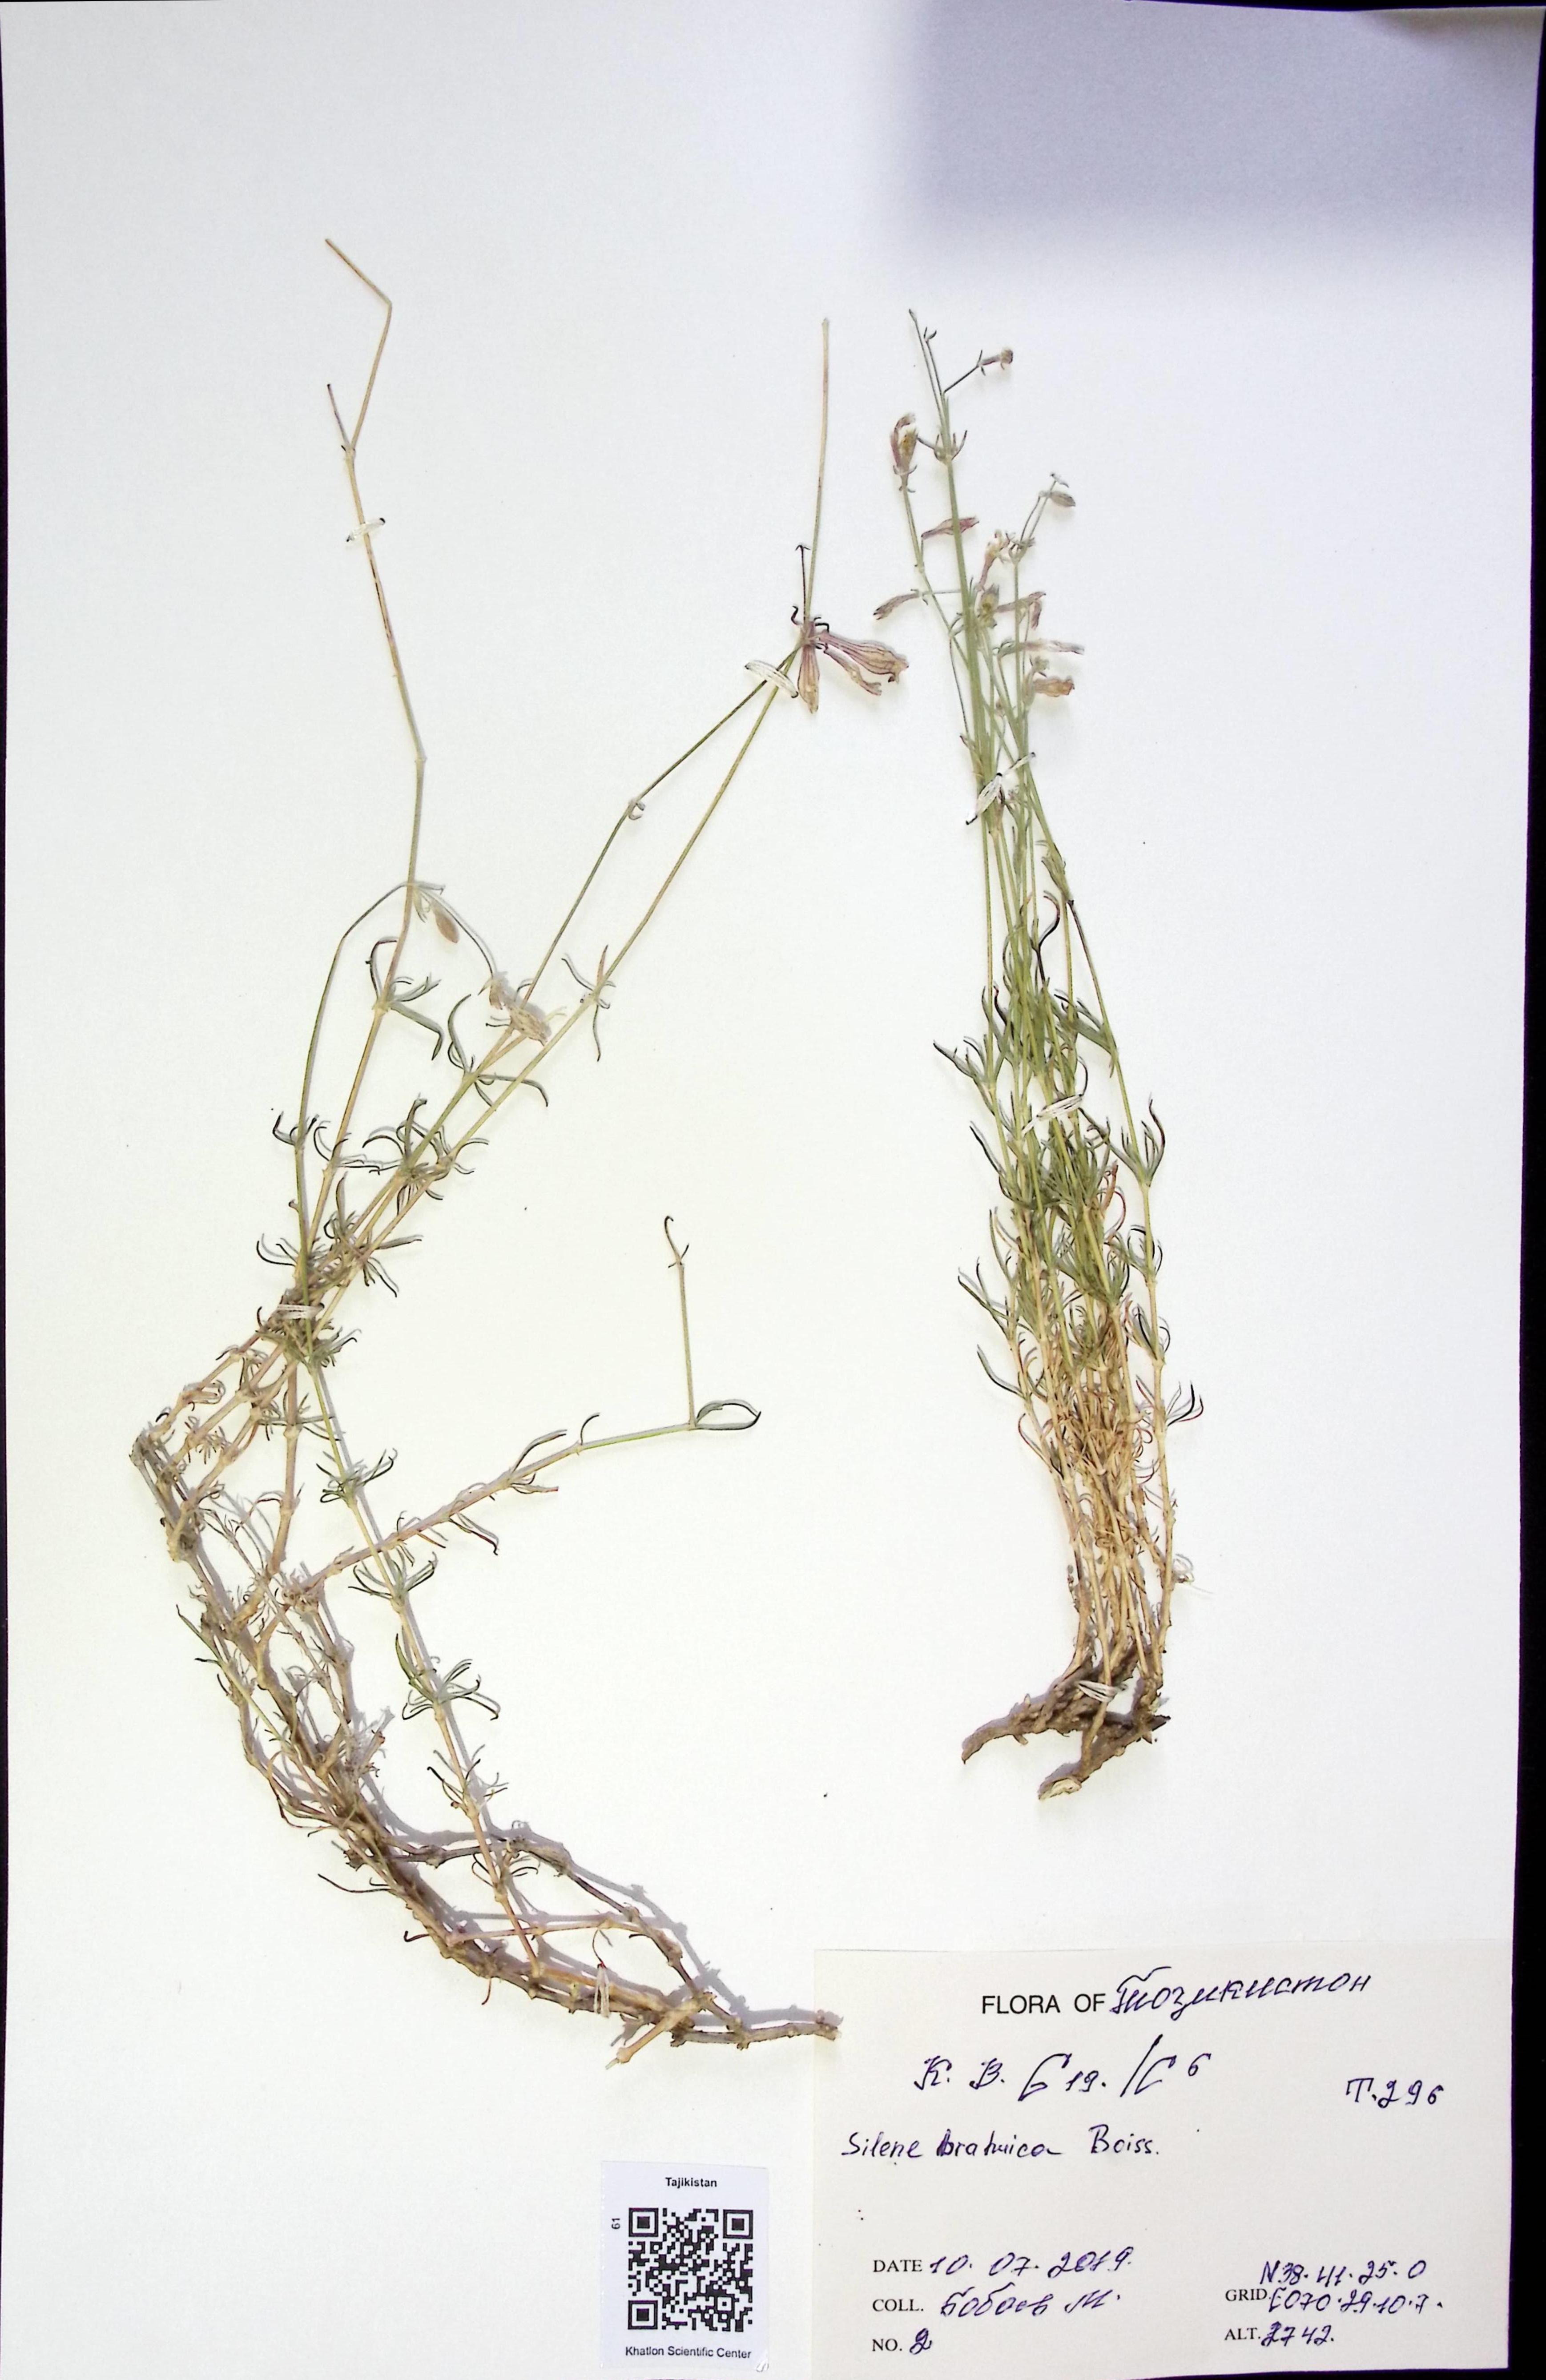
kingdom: Plantae
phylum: Tracheophyta
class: Magnoliopsida
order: Caryophyllales
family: Caryophyllaceae
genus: Silene
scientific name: Silene brahuica
